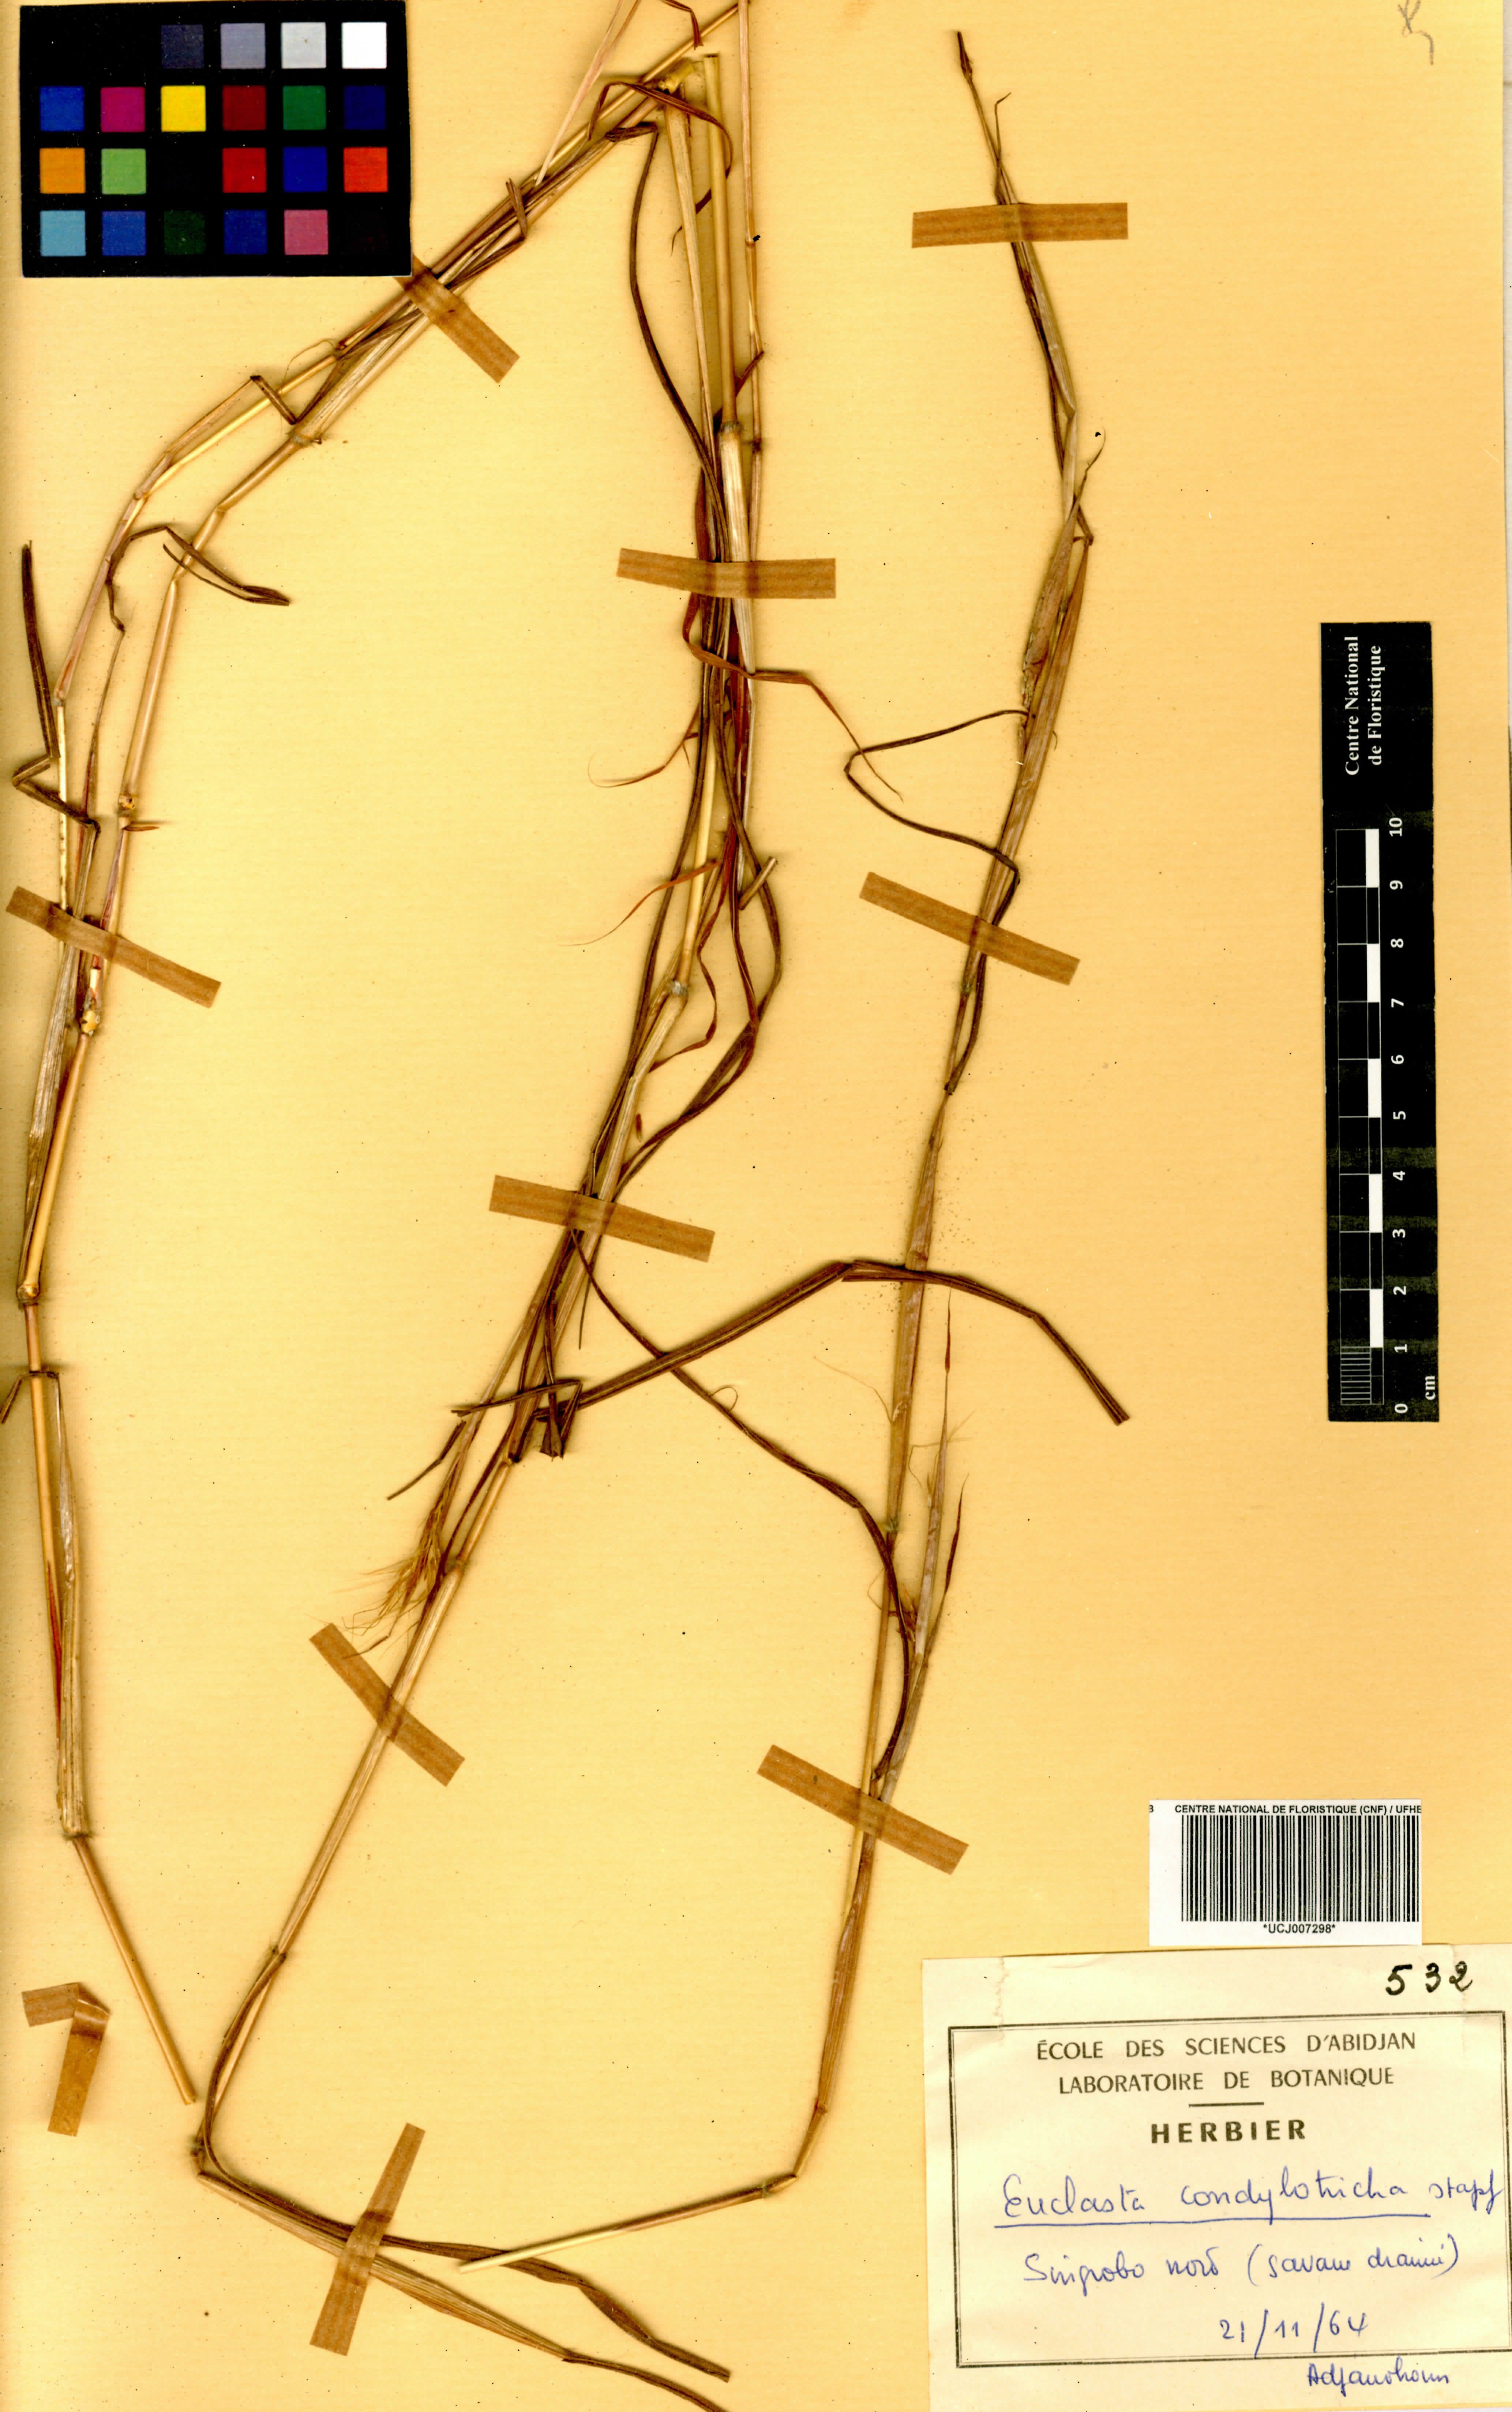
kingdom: Plantae
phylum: Tracheophyta
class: Liliopsida
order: Poales
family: Poaceae
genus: Euclasta
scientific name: Euclasta condylotricha
